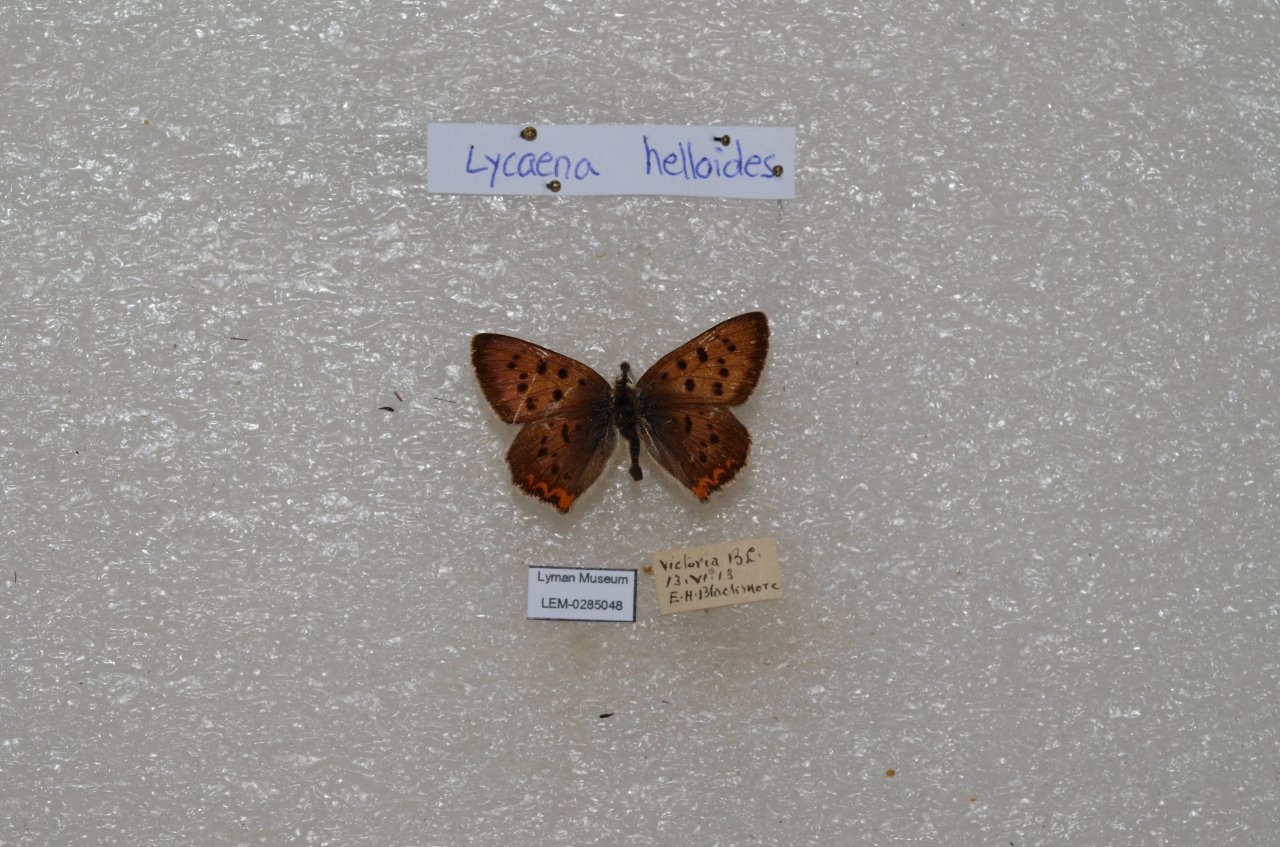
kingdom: Animalia
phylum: Arthropoda
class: Insecta
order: Lepidoptera
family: Sesiidae
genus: Sesia
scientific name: Sesia Lycaena helloides
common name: Purplish Copper
